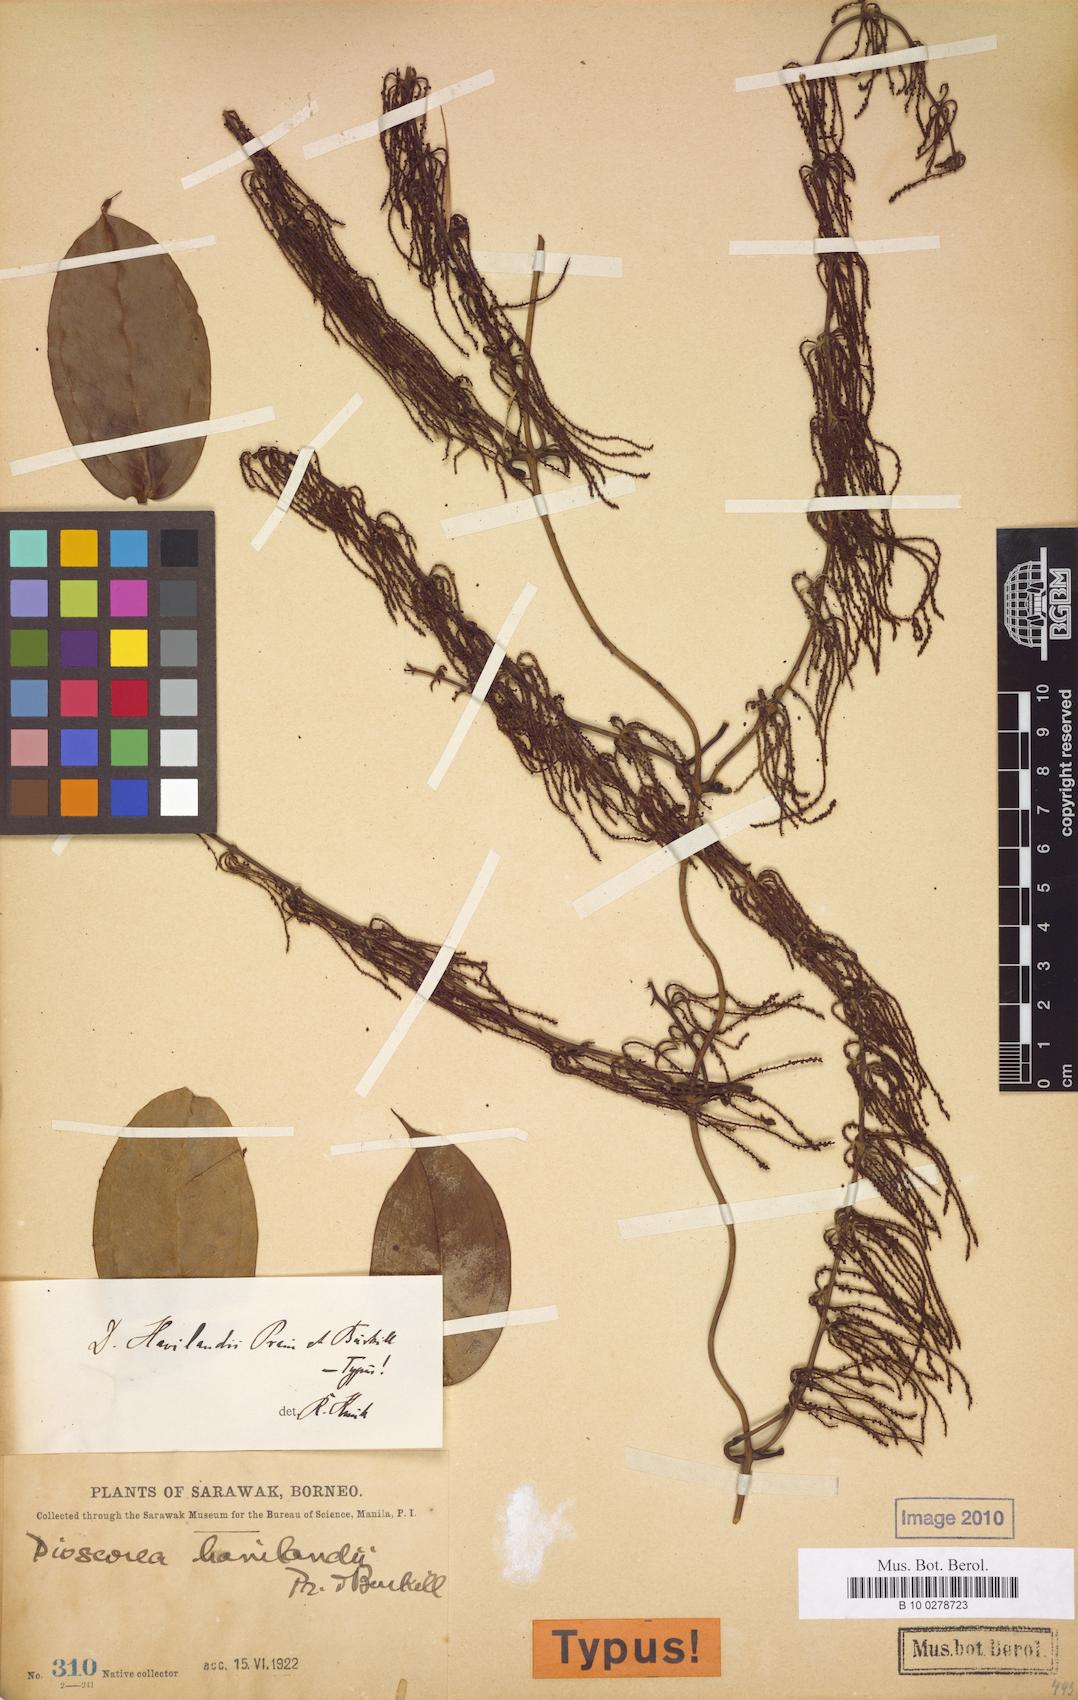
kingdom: Plantae
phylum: Tracheophyta
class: Liliopsida
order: Dioscoreales
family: Dioscoreaceae
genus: Dioscorea
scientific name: Dioscorea havilandii
